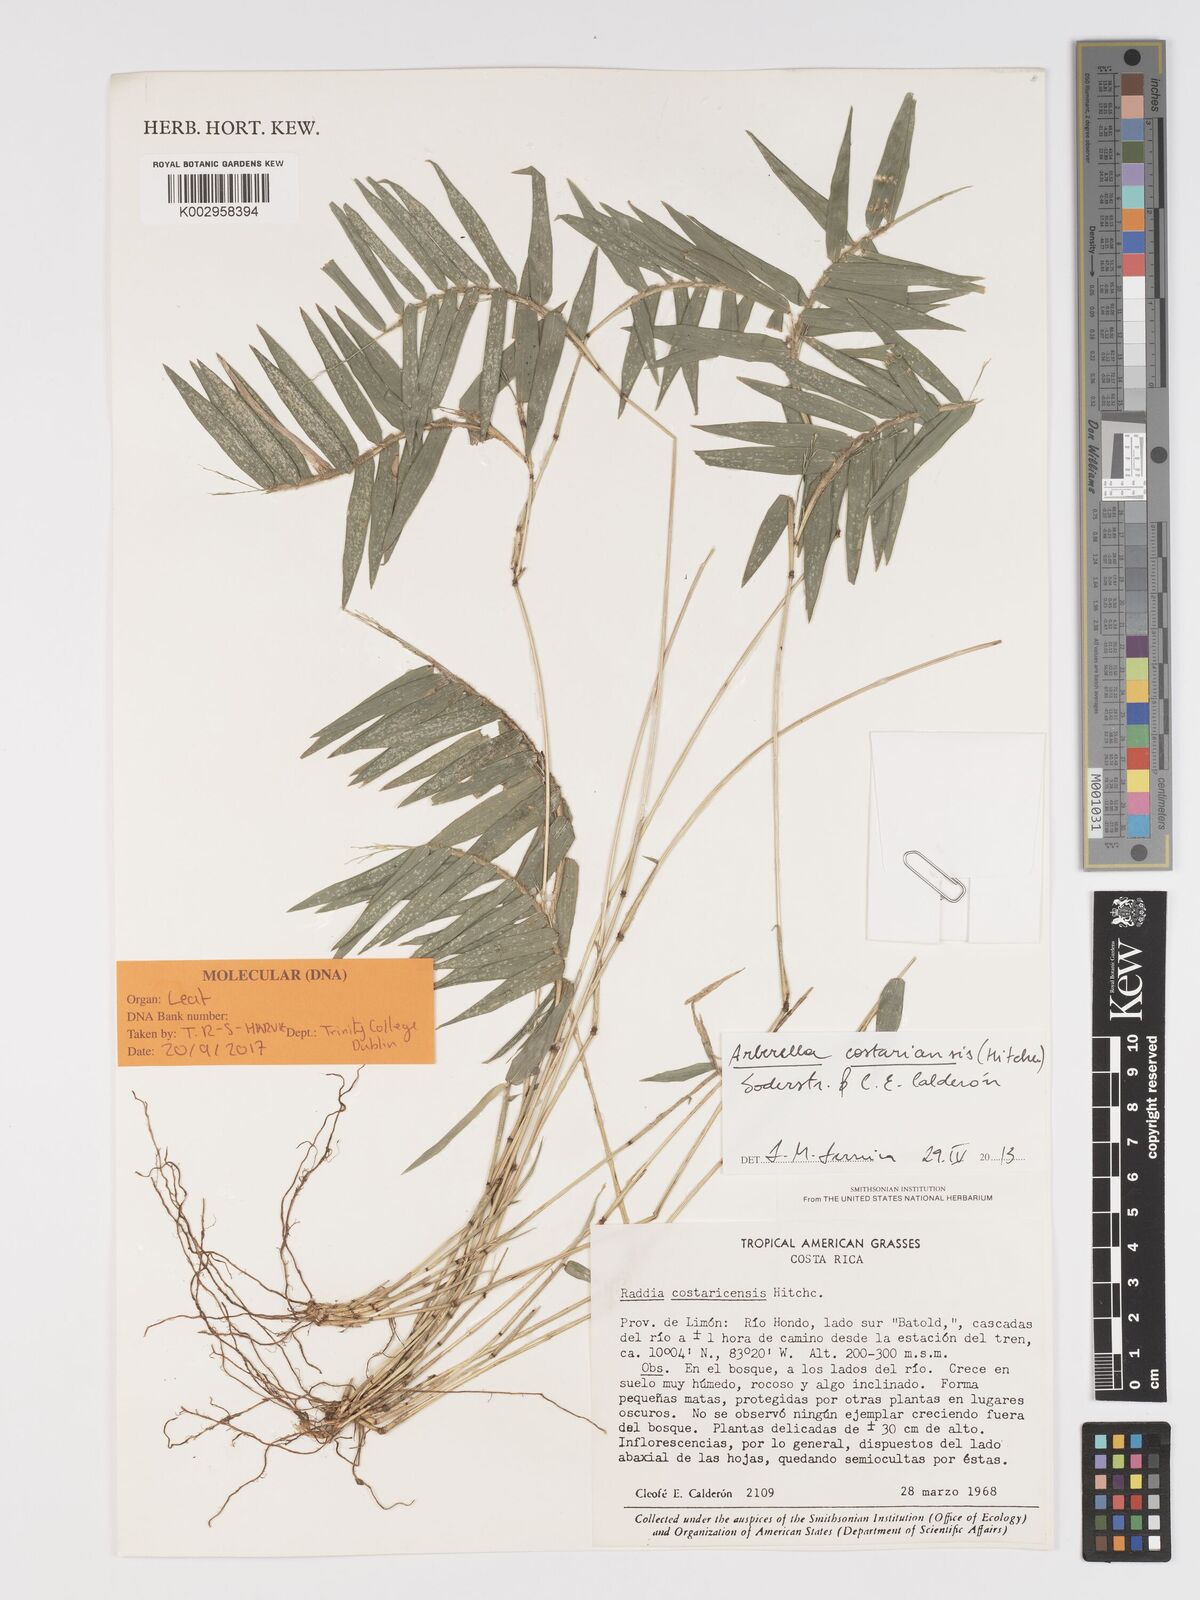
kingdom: Plantae
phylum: Tracheophyta
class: Liliopsida
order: Poales
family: Poaceae
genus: Arberella
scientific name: Arberella costaricensis
